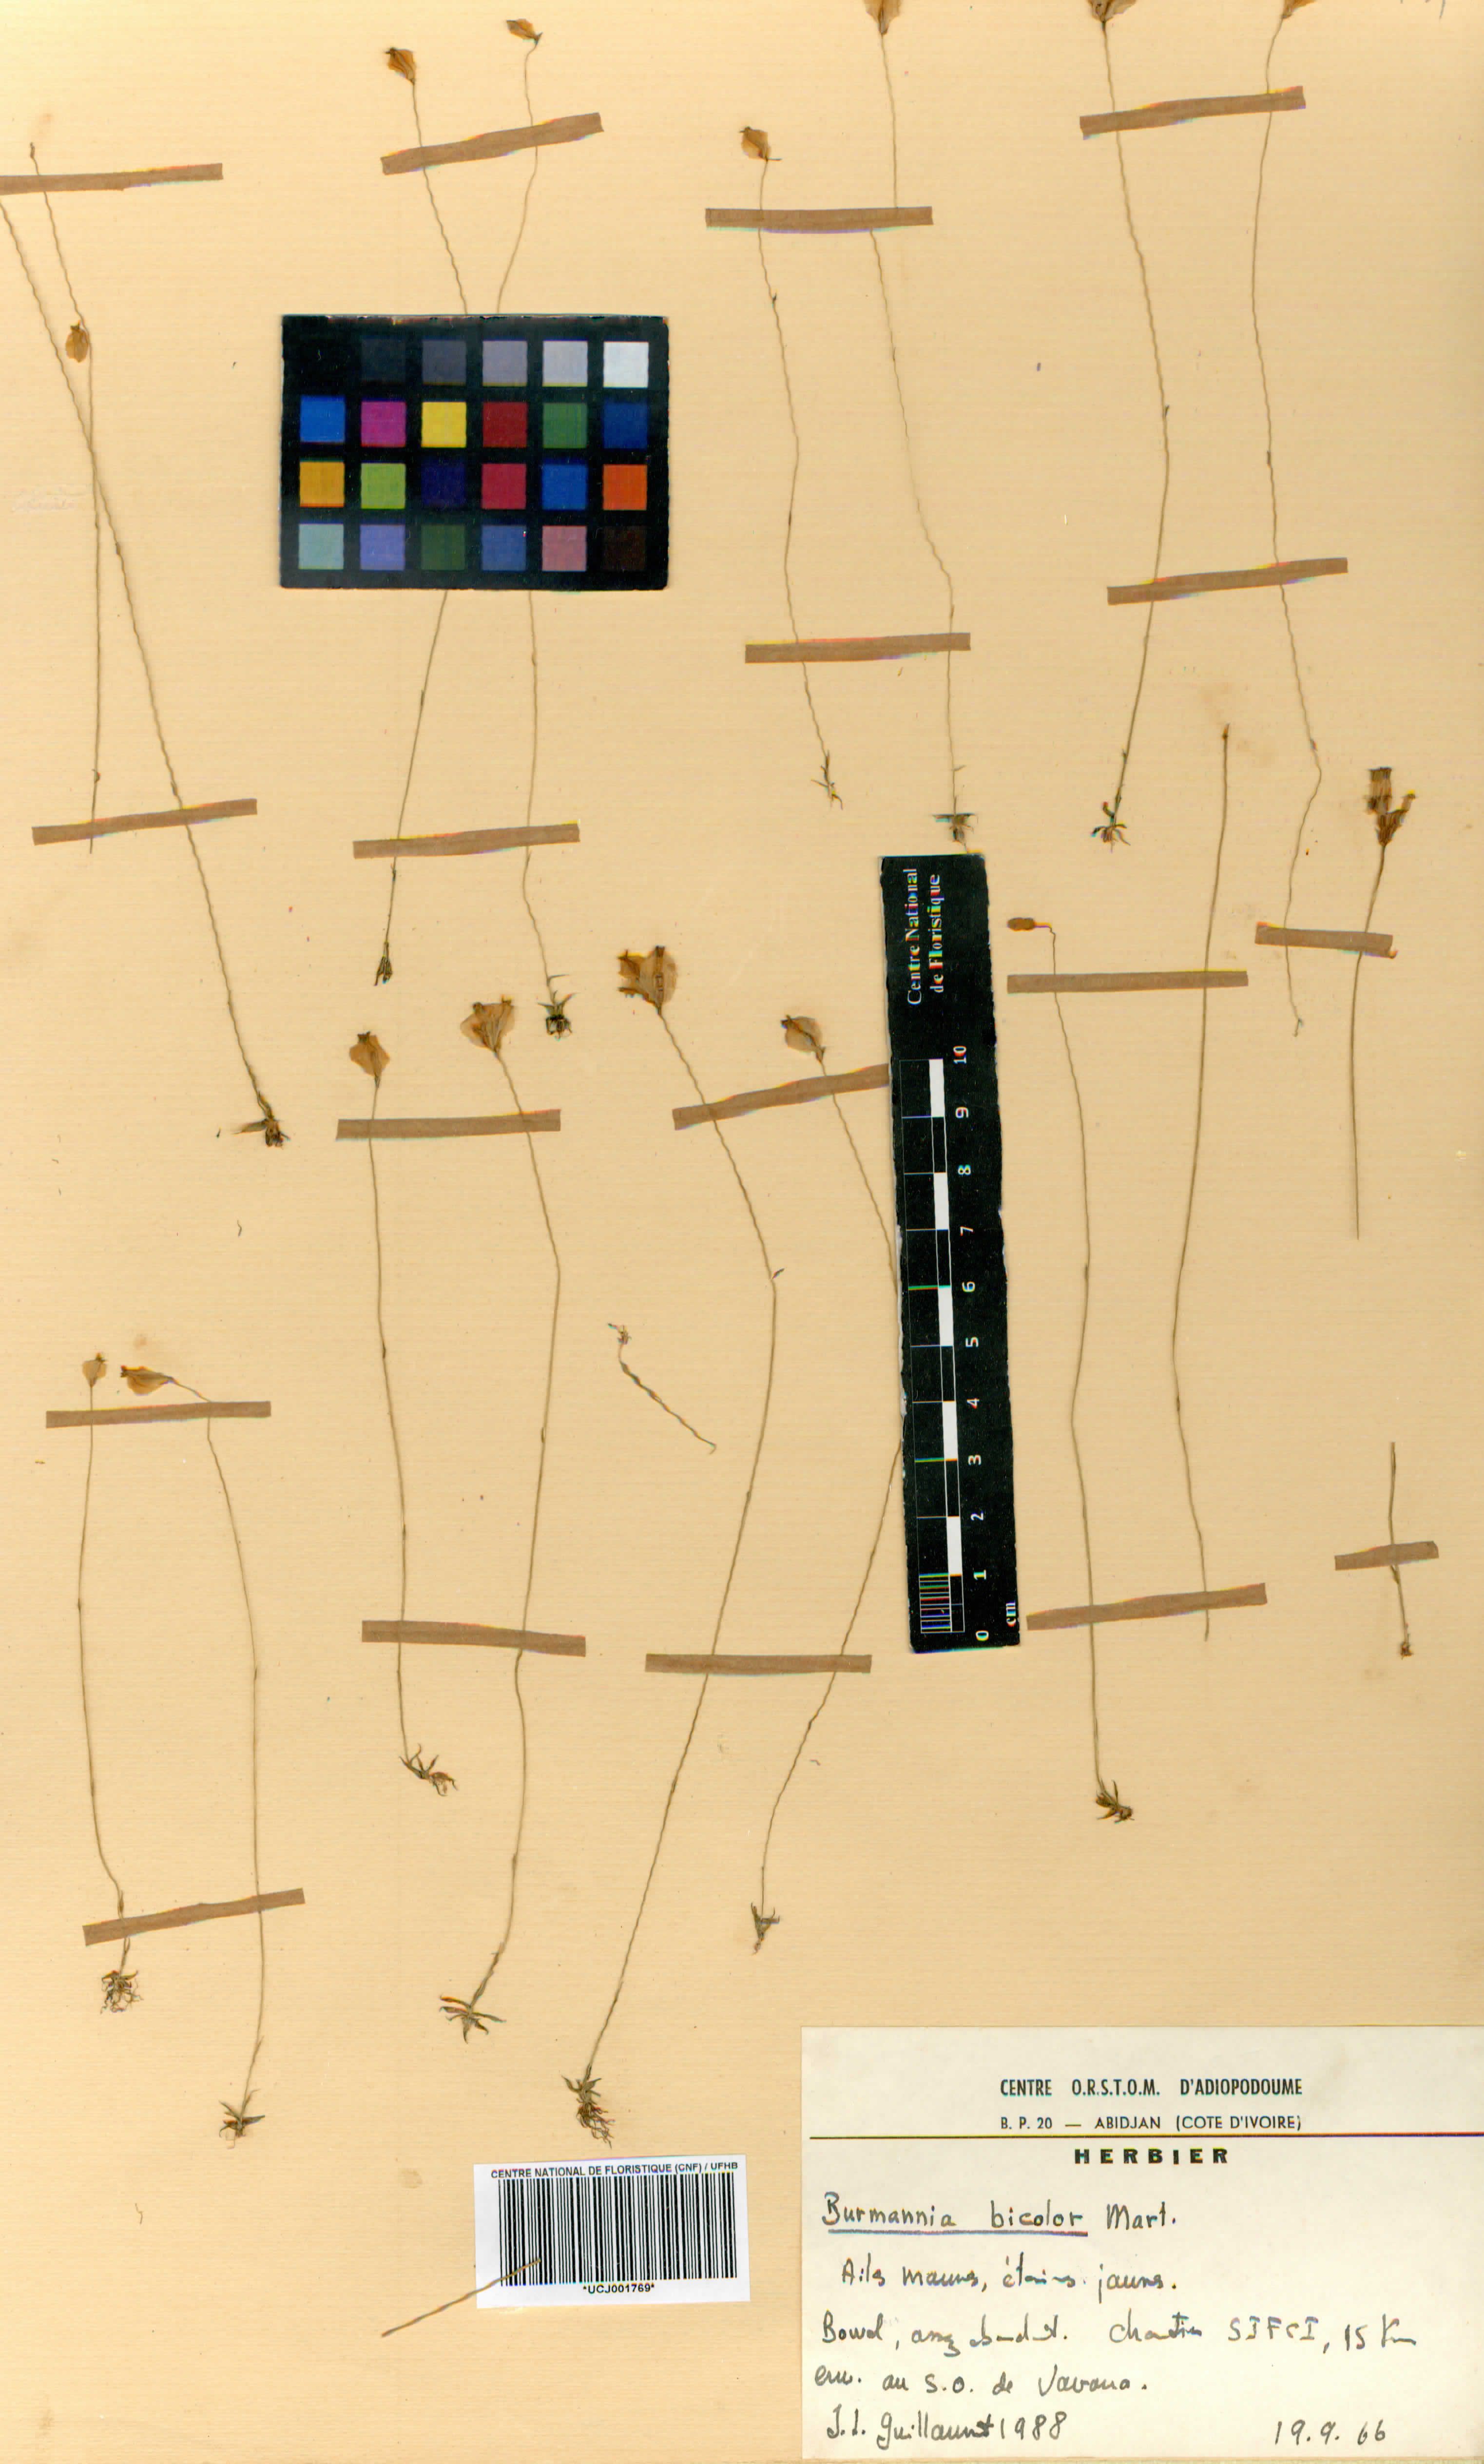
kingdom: Plantae
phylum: Tracheophyta
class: Liliopsida
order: Dioscoreales
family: Burmanniaceae
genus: Burmannia
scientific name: Burmannia bicolor
